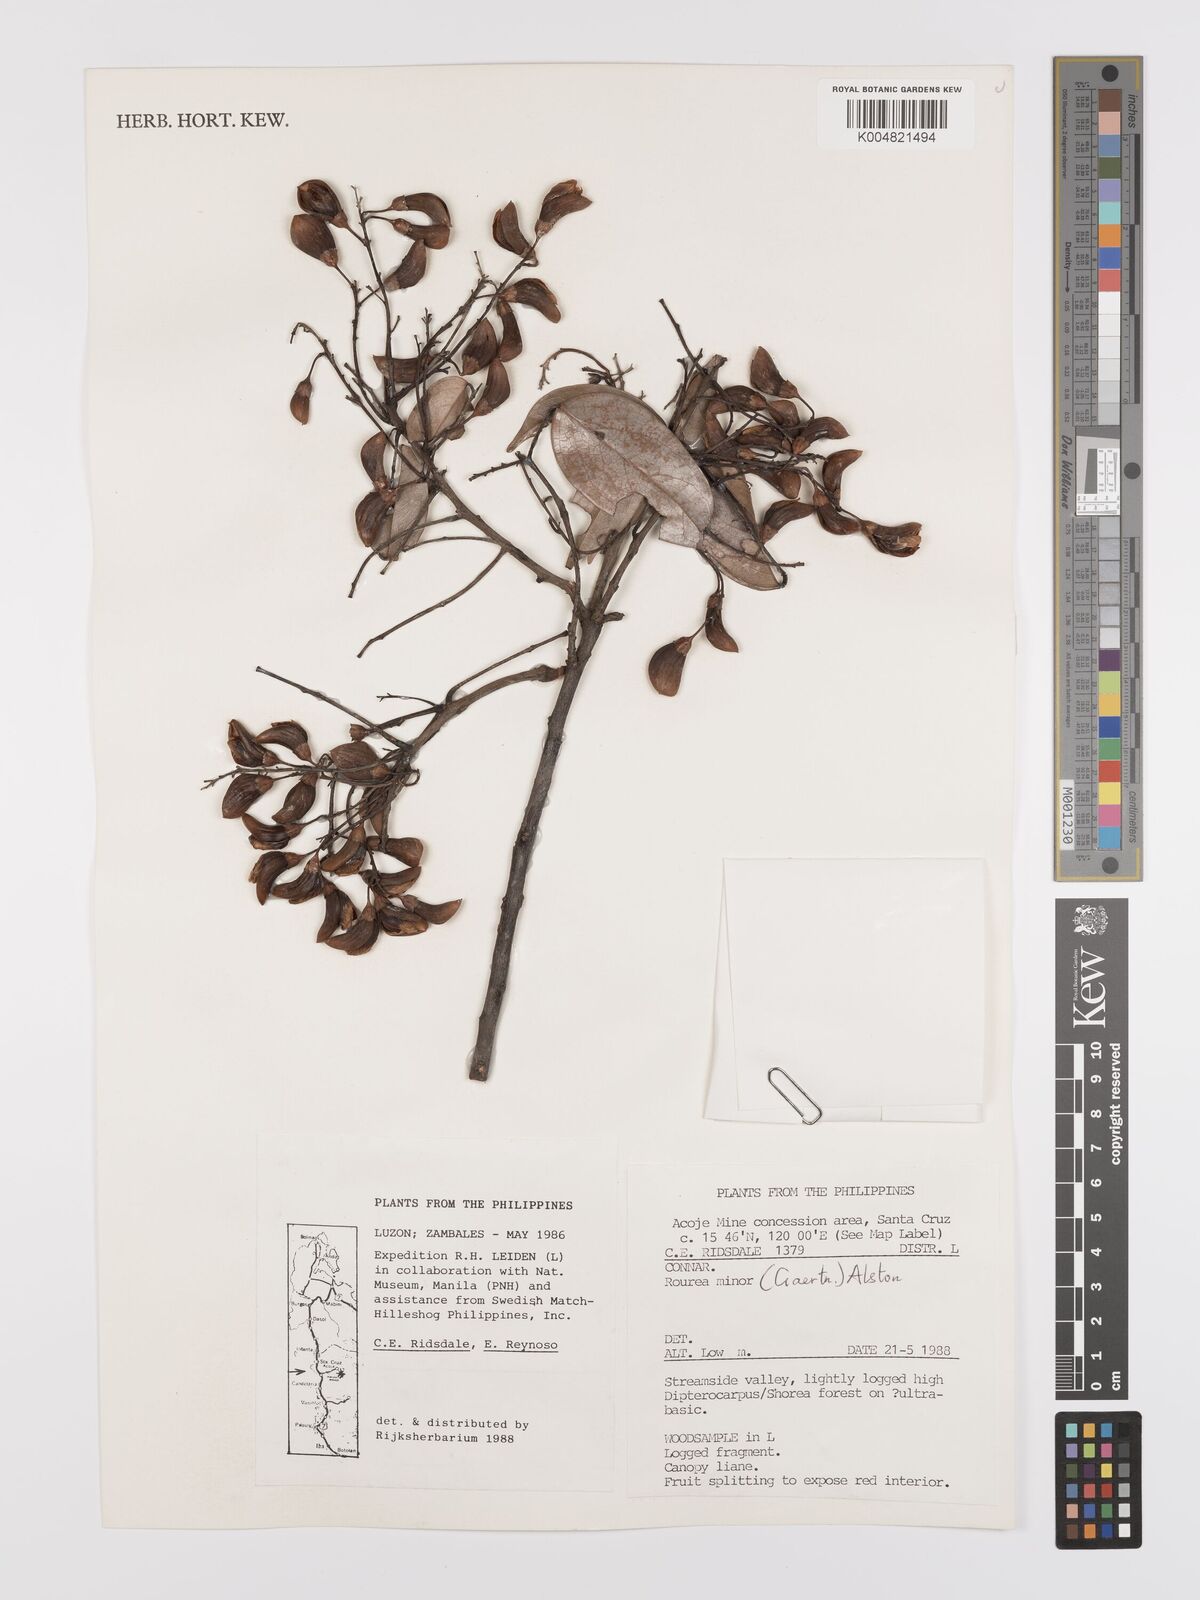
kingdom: Plantae
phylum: Tracheophyta
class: Magnoliopsida
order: Oxalidales
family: Connaraceae
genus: Rourea
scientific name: Rourea minor
